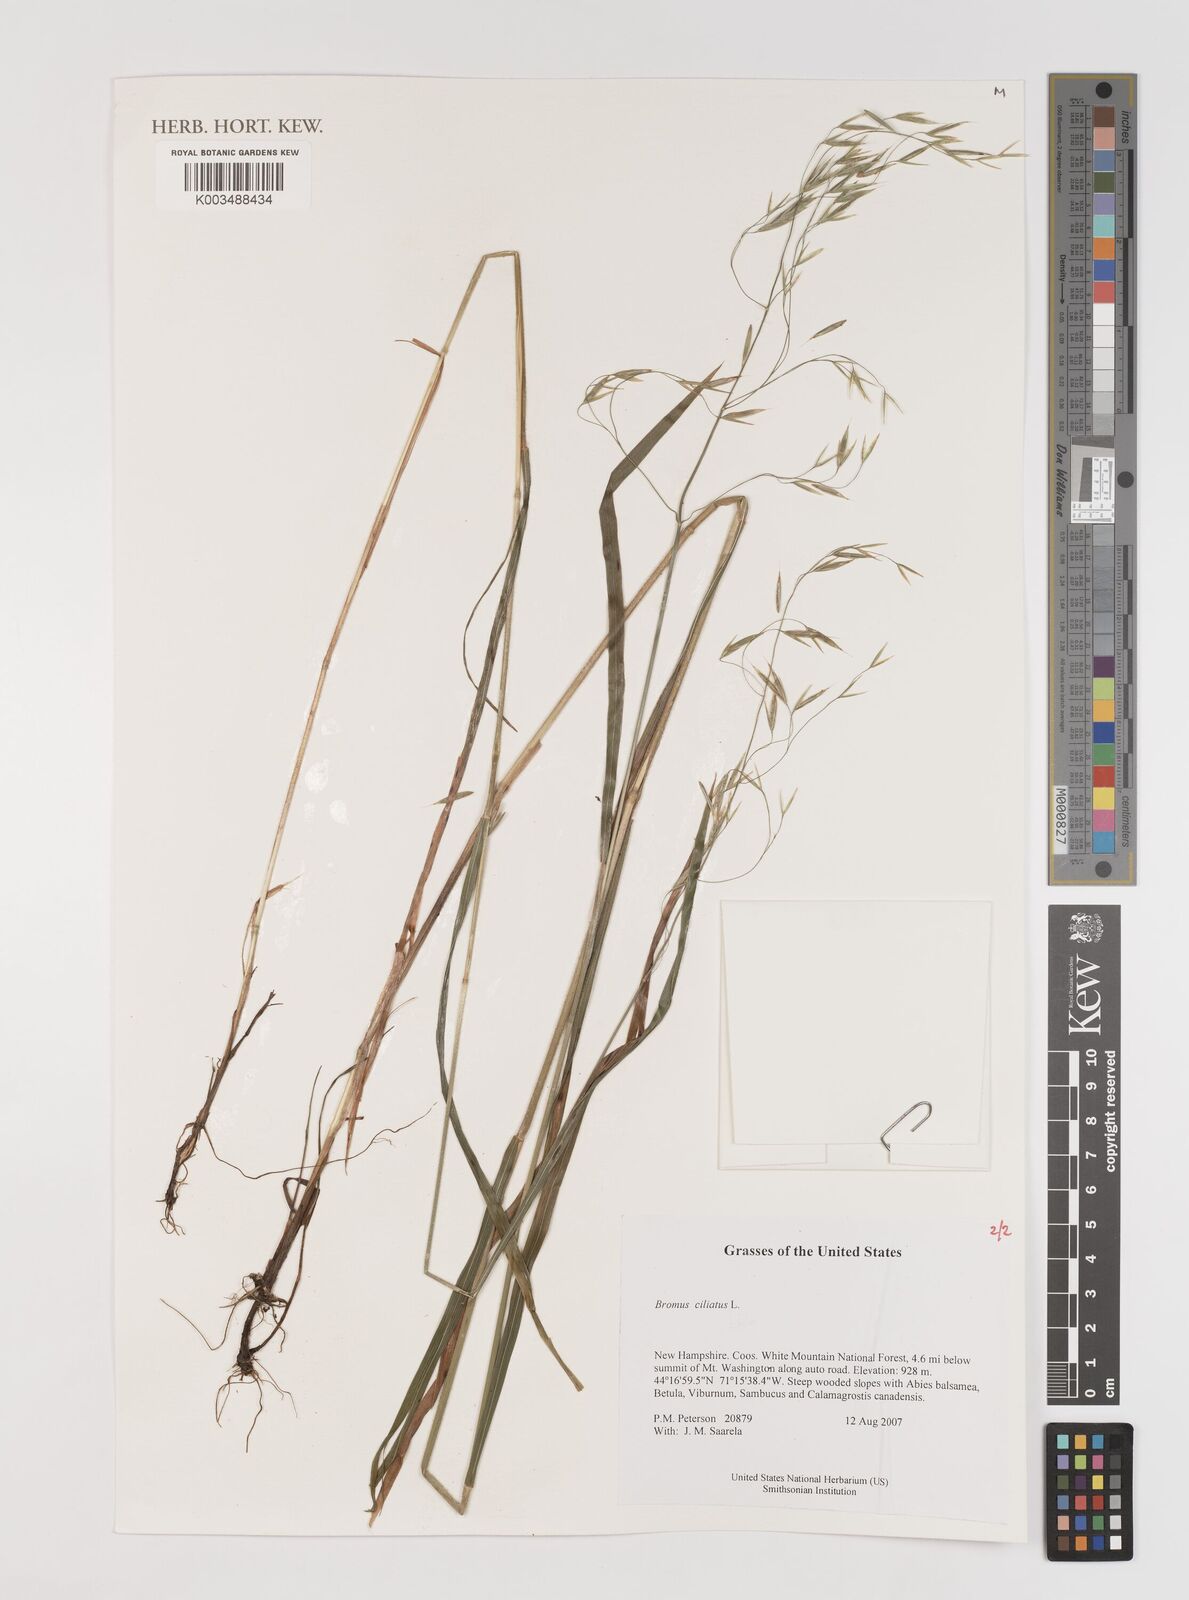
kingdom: Plantae
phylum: Tracheophyta
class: Liliopsida
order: Poales
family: Poaceae
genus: Bromus
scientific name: Bromus ciliatus
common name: Fringe brome
